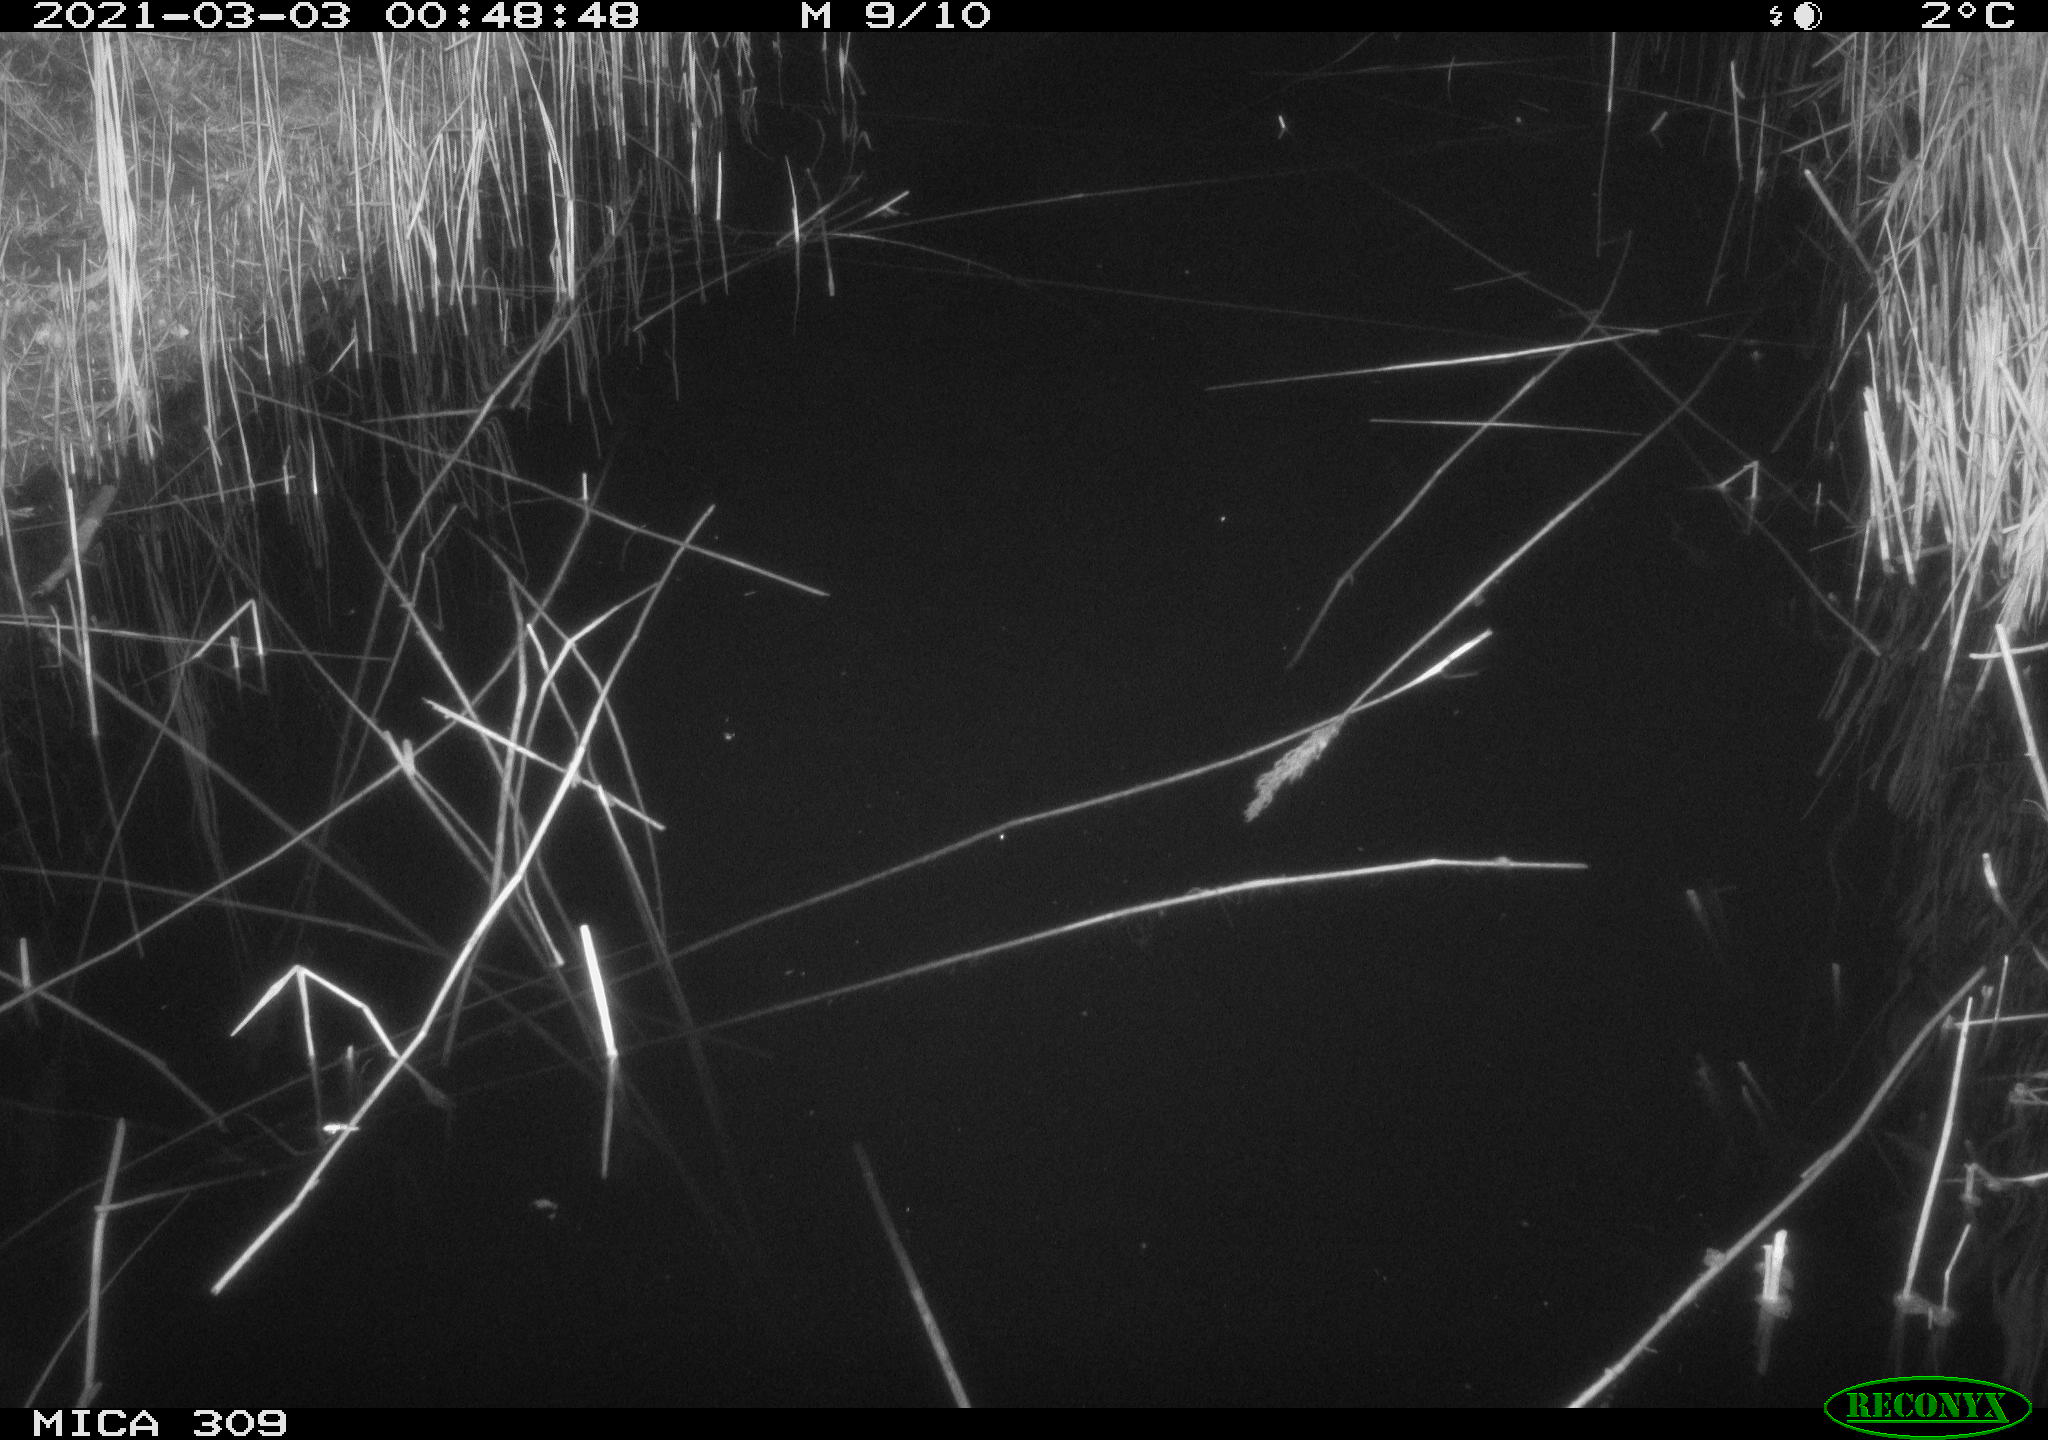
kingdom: Animalia
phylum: Chordata
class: Aves
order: Gruiformes
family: Rallidae
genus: Fulica
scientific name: Fulica atra
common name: Eurasian coot
